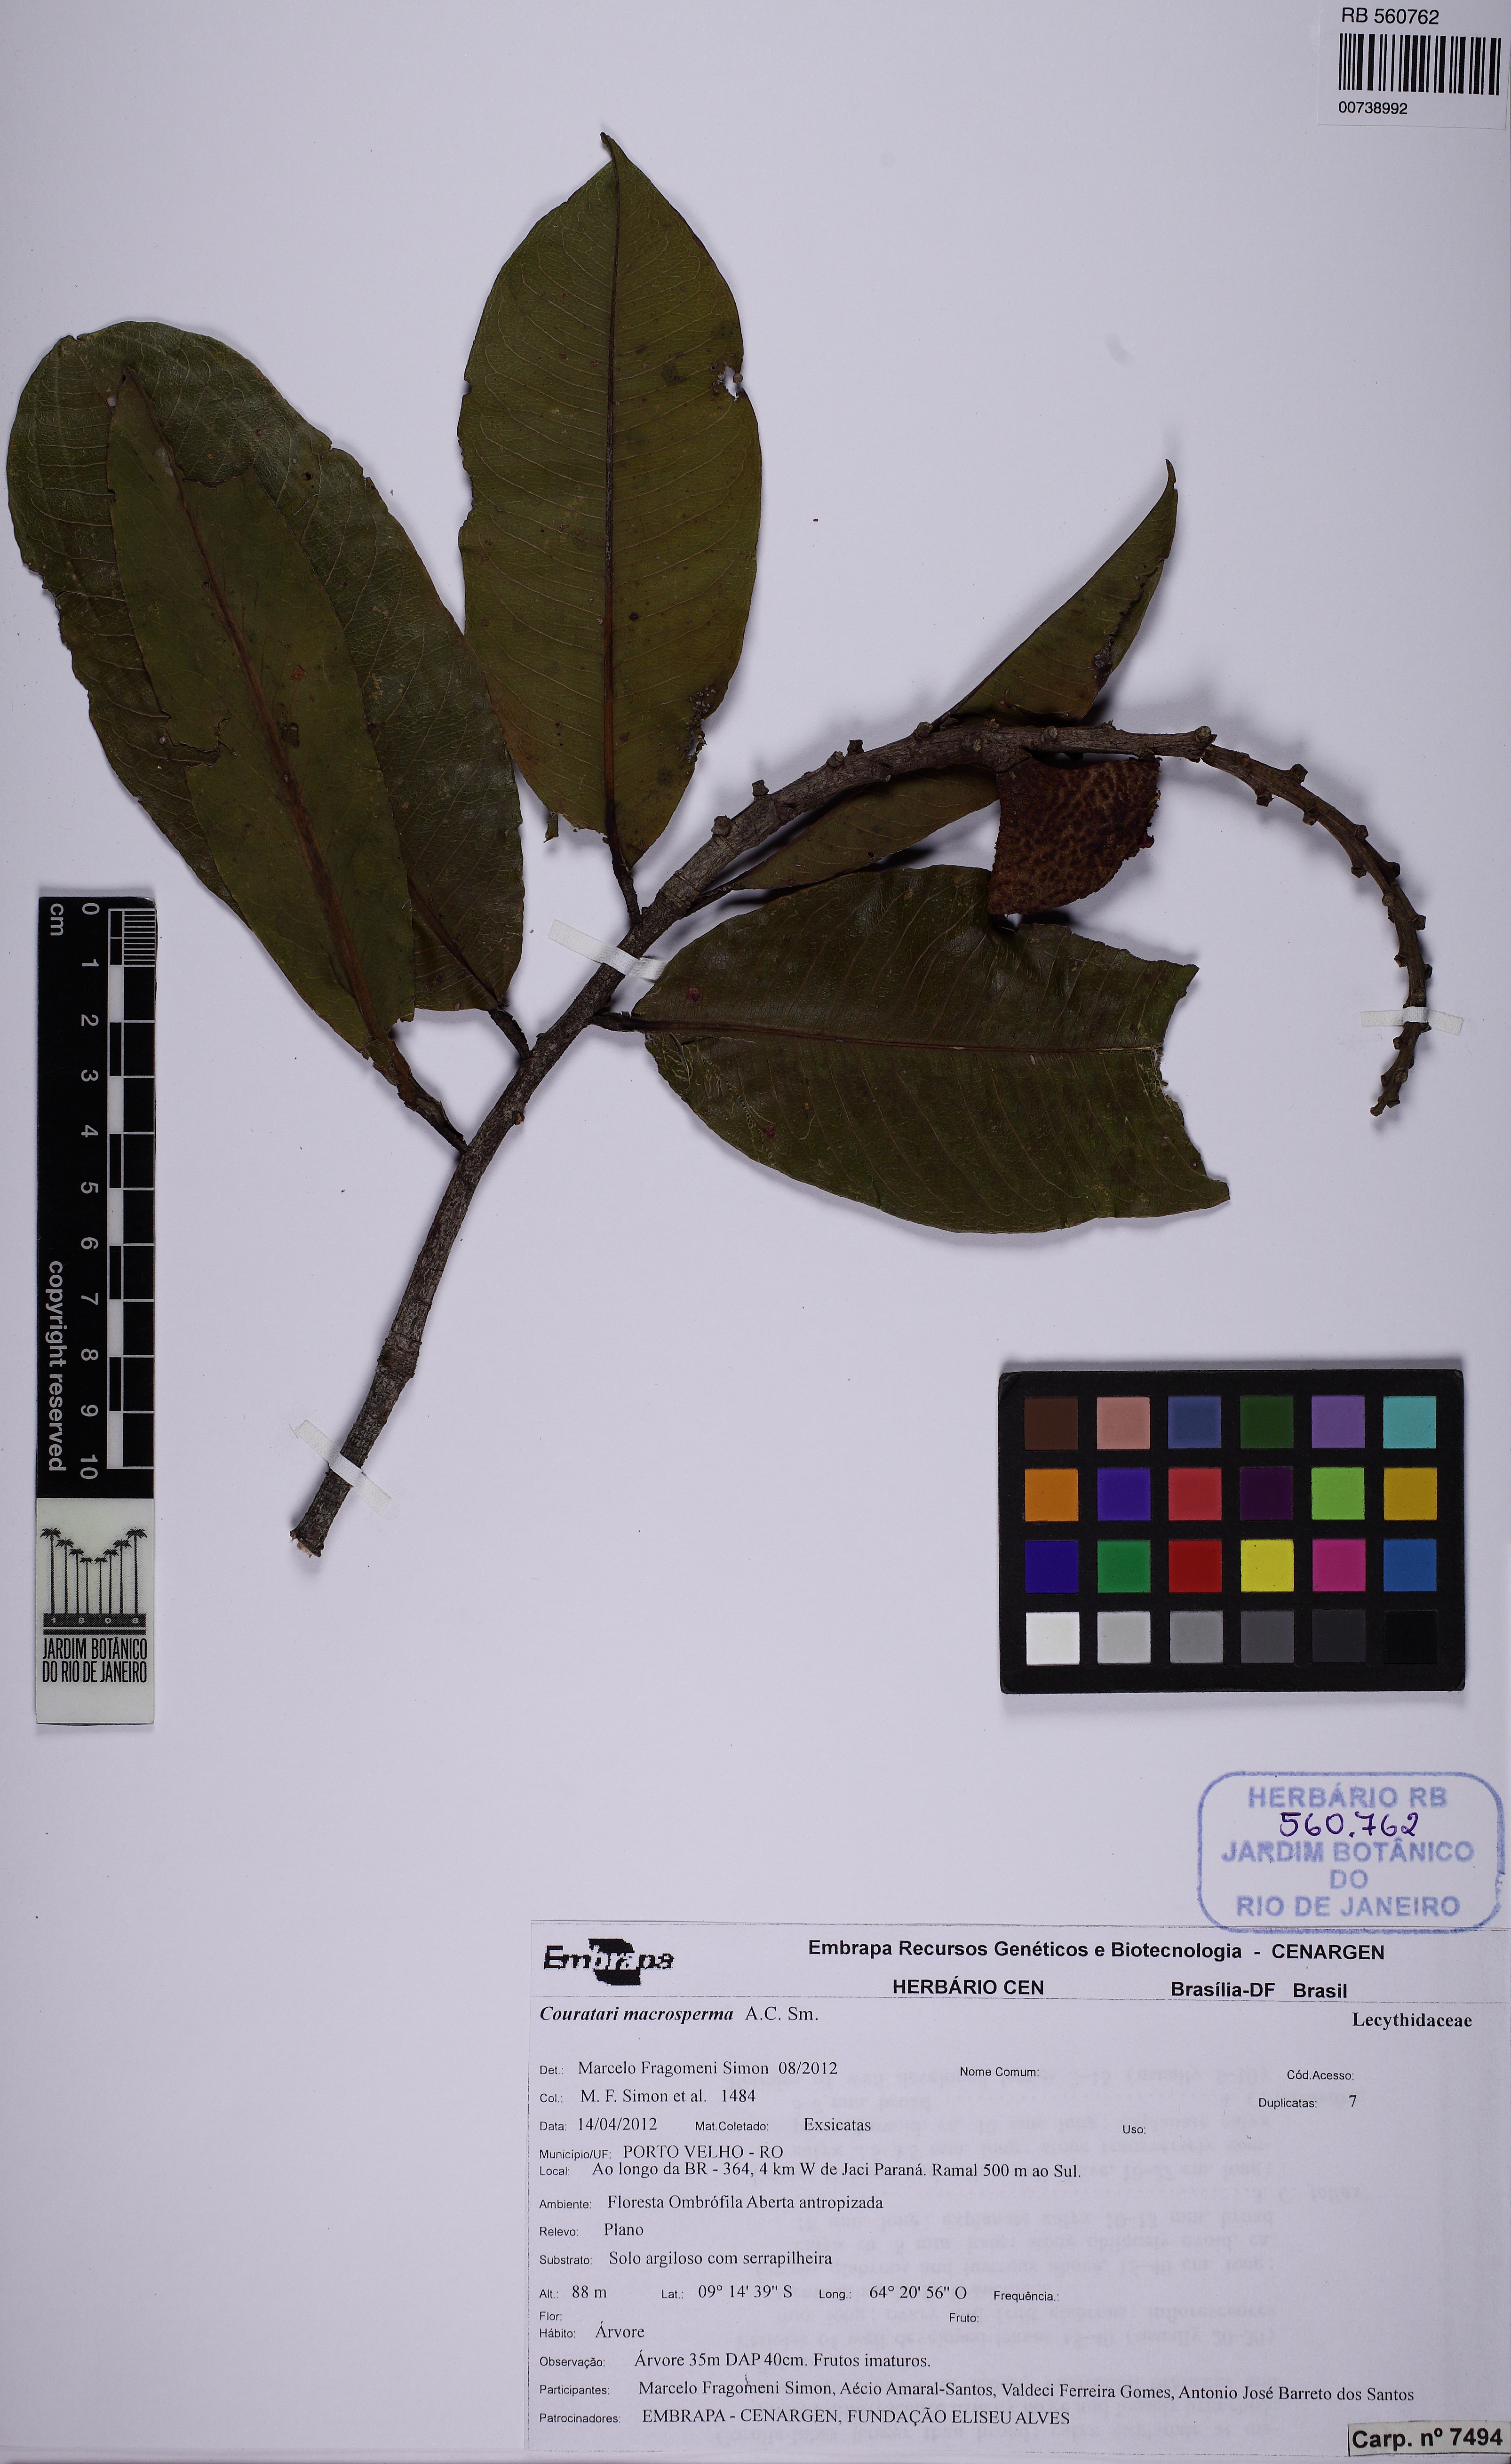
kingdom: Plantae
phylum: Tracheophyta
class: Magnoliopsida
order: Ericales
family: Lecythidaceae
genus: Couratari
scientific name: Couratari macrosperma
